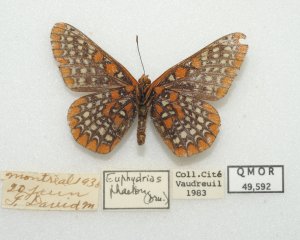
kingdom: Animalia
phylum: Arthropoda
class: Insecta
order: Lepidoptera
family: Nymphalidae
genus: Euphydryas
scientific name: Euphydryas phaeton
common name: Baltimore Checkerspot
